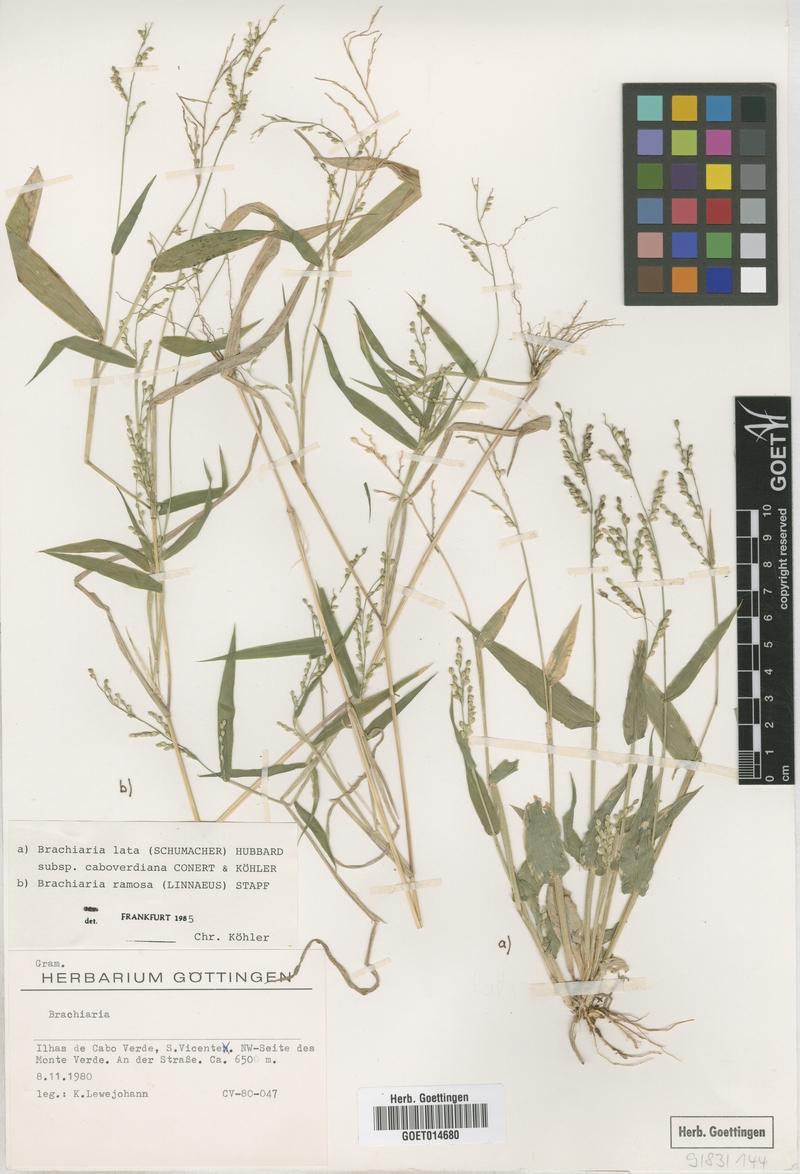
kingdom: Plantae
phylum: Tracheophyta
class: Liliopsida
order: Poales
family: Poaceae
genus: Urochloa
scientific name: Urochloa caboverdiana
